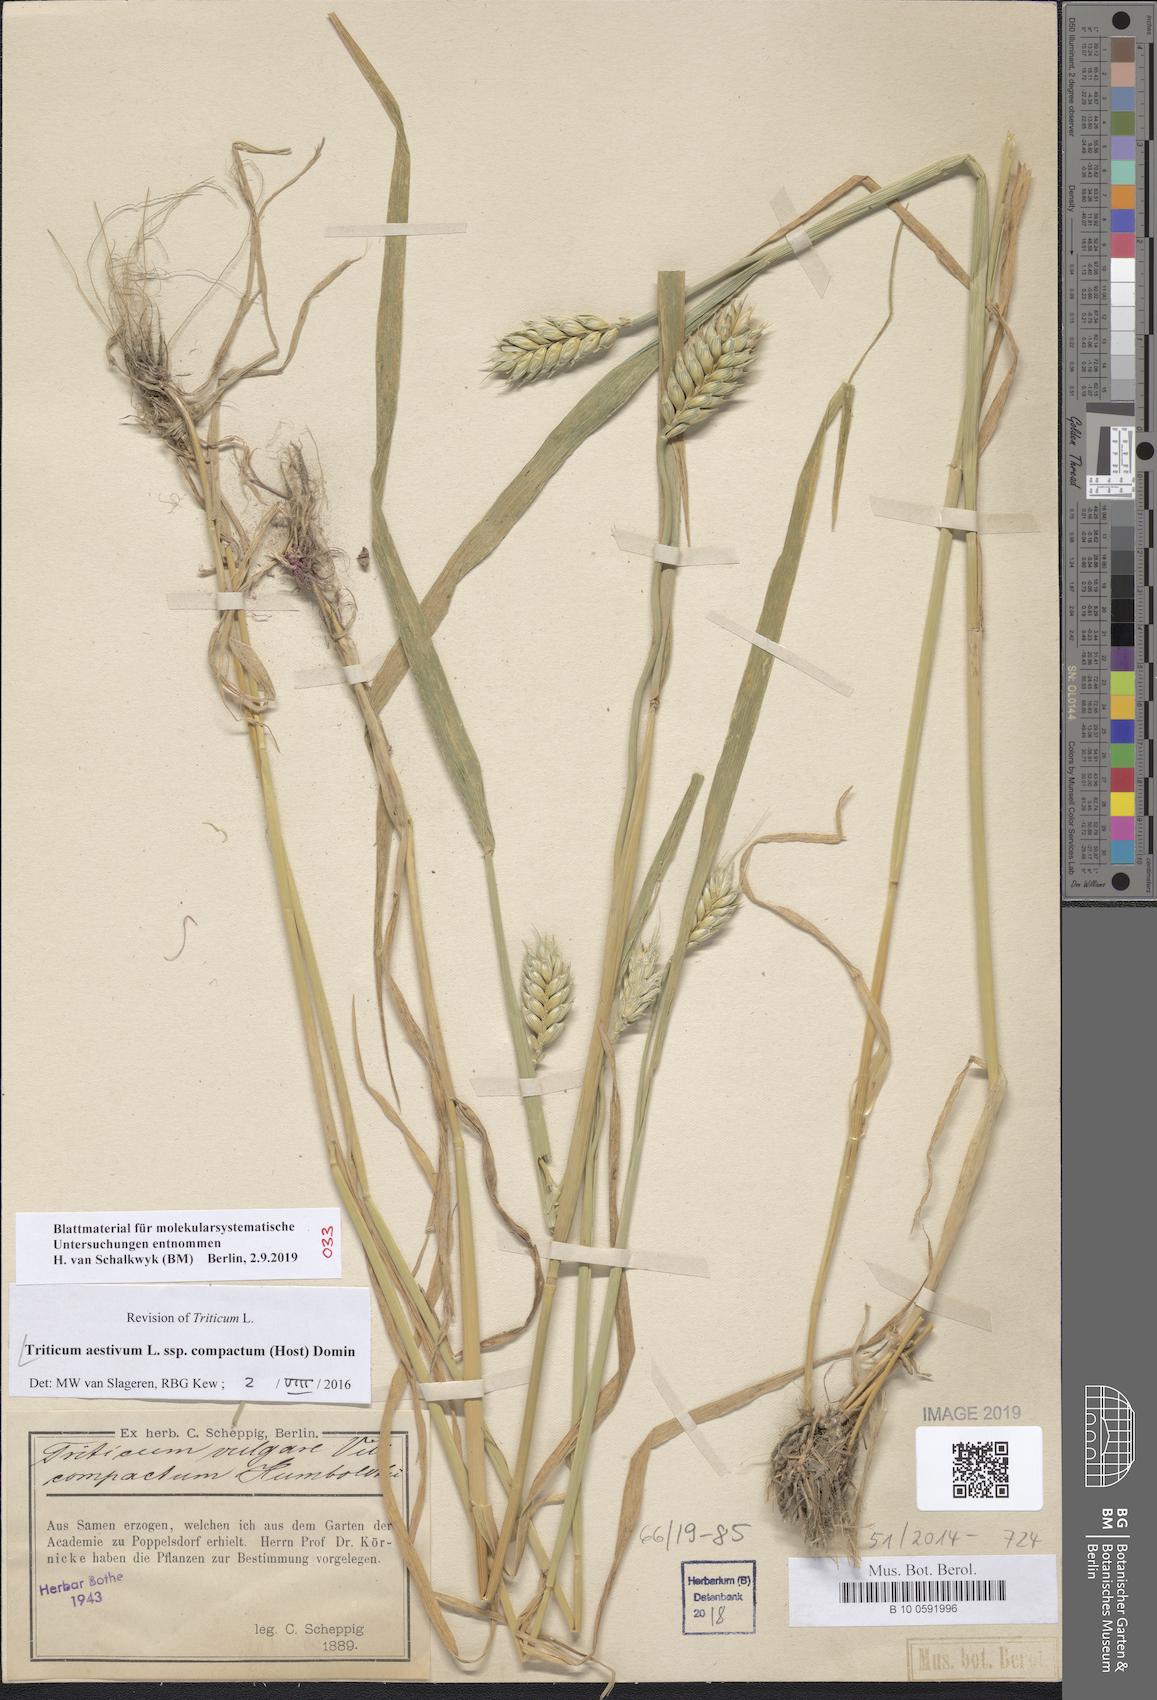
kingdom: Plantae
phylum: Tracheophyta
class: Liliopsida
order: Poales
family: Poaceae
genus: Triticum
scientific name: Triticum aestivum
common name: Common wheat
